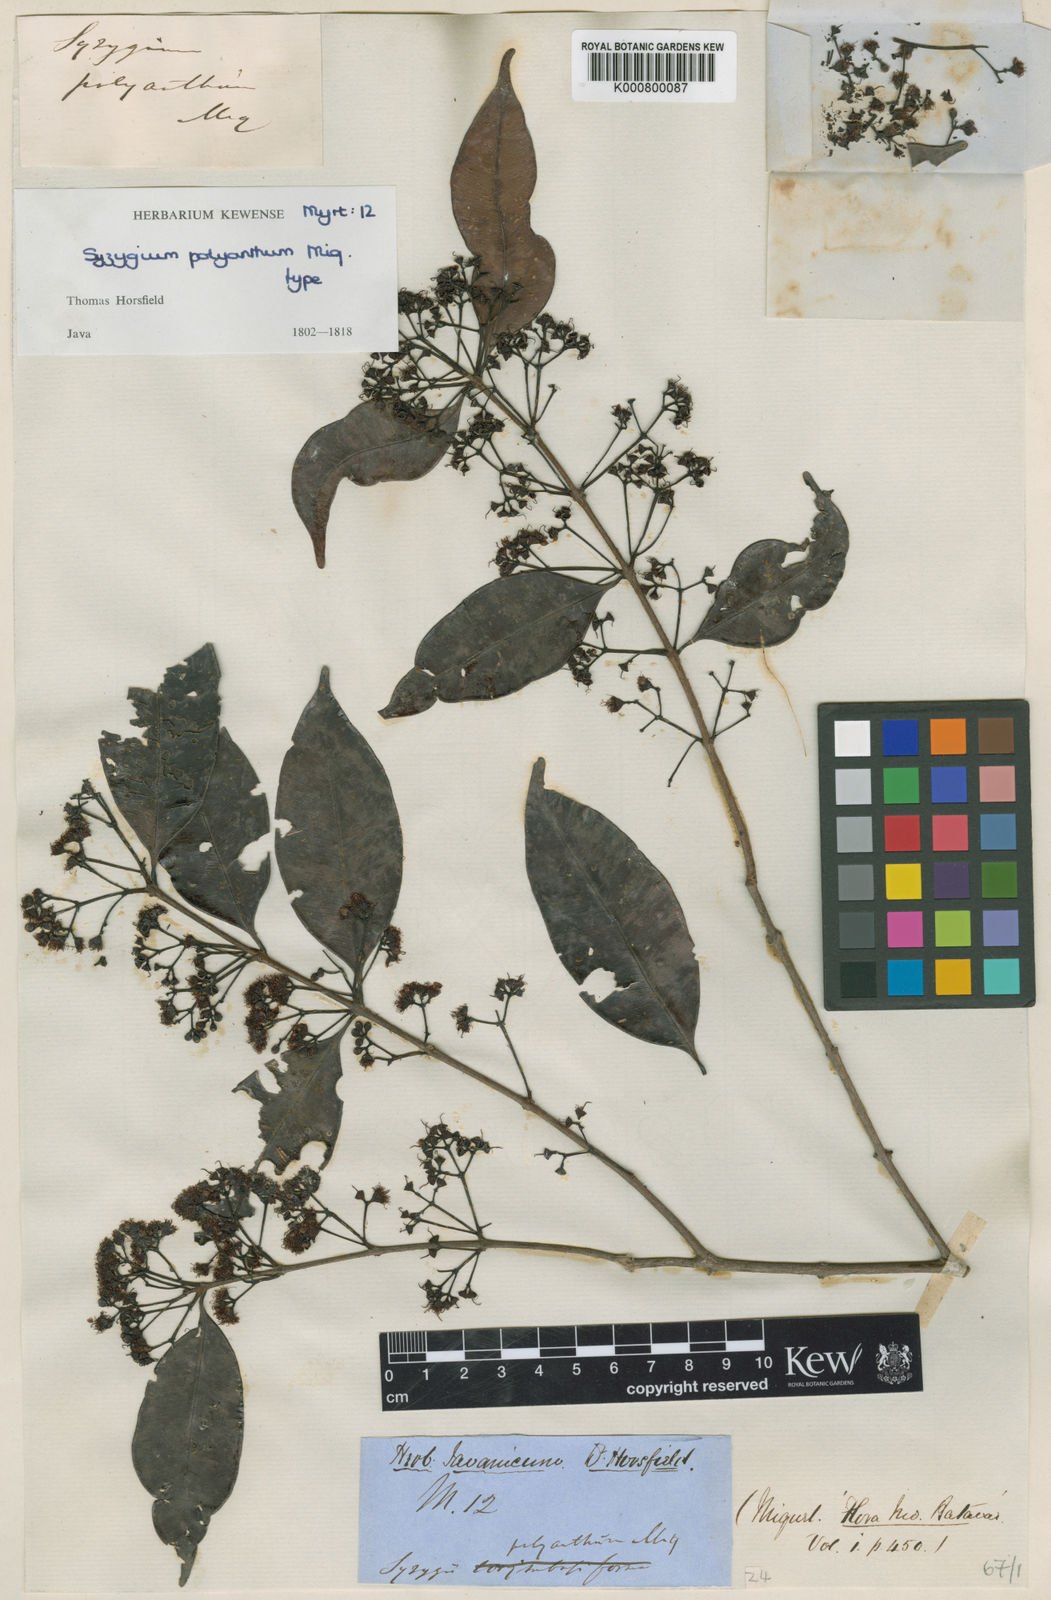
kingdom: Plantae
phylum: Tracheophyta
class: Magnoliopsida
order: Myrtales
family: Myrtaceae
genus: Syzygium
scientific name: Syzygium
